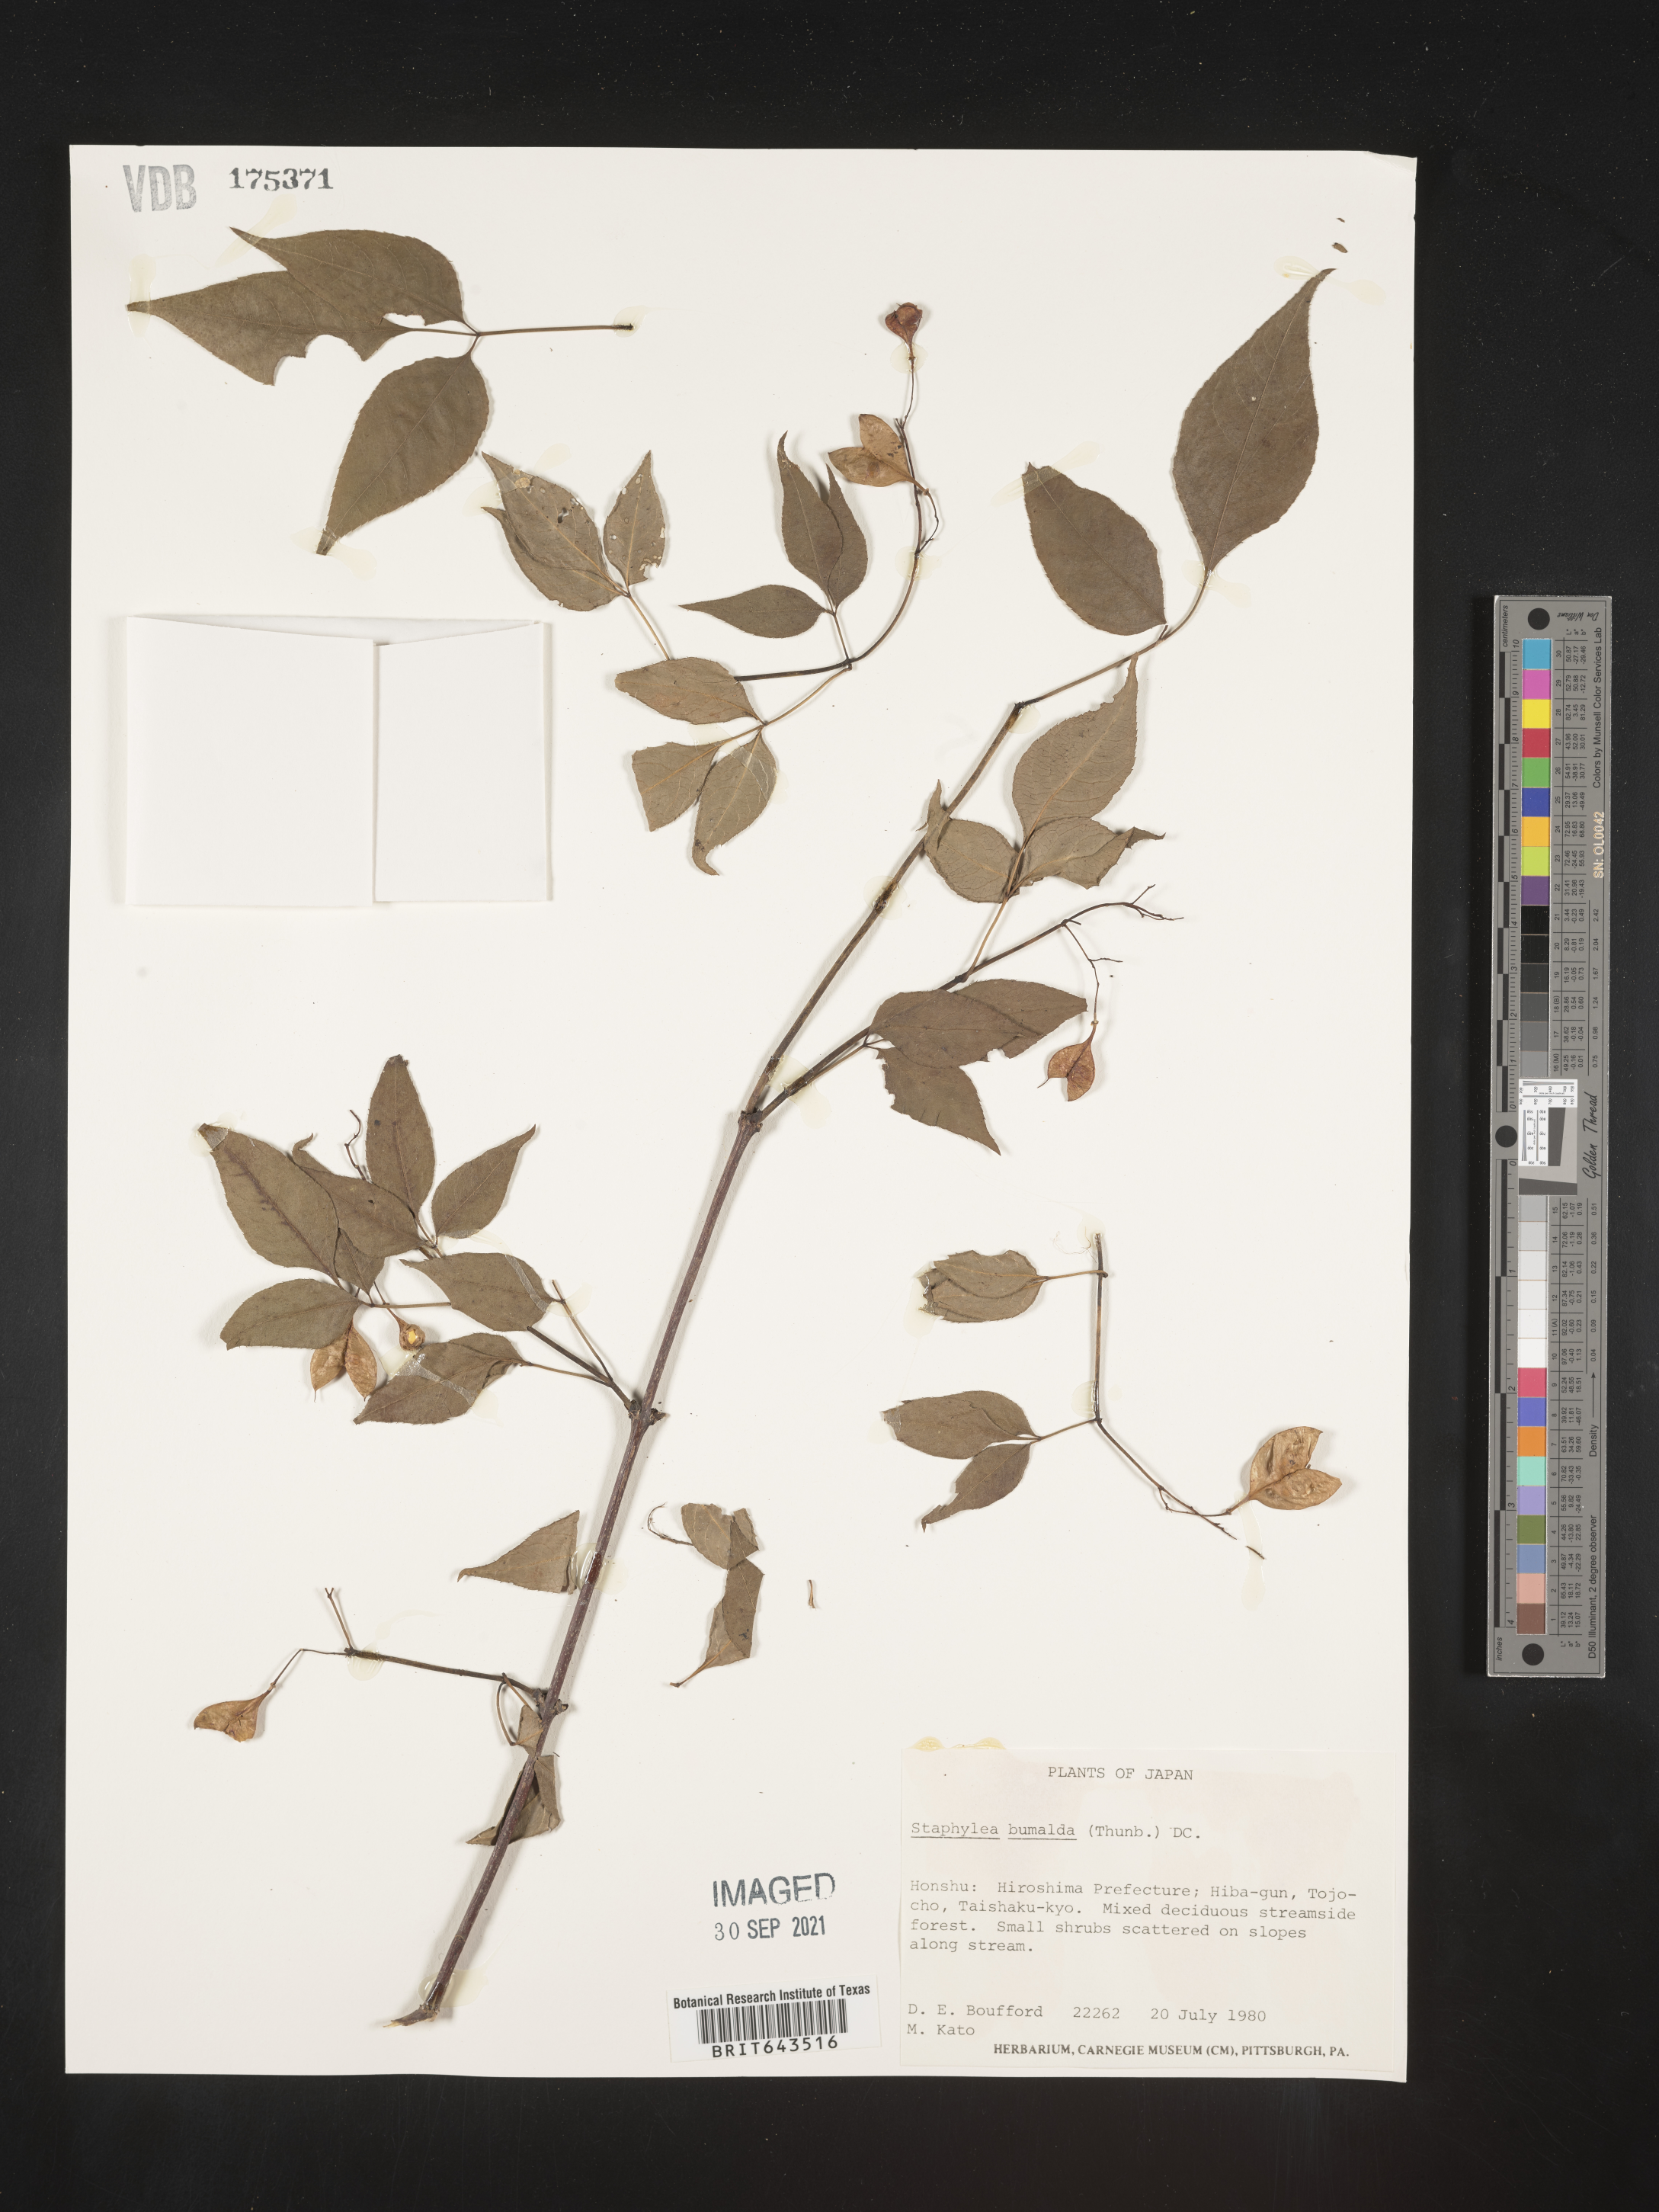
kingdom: Plantae
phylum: Tracheophyta
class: Magnoliopsida
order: Crossosomatales
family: Staphyleaceae
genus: Staphylea
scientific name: Staphylea
